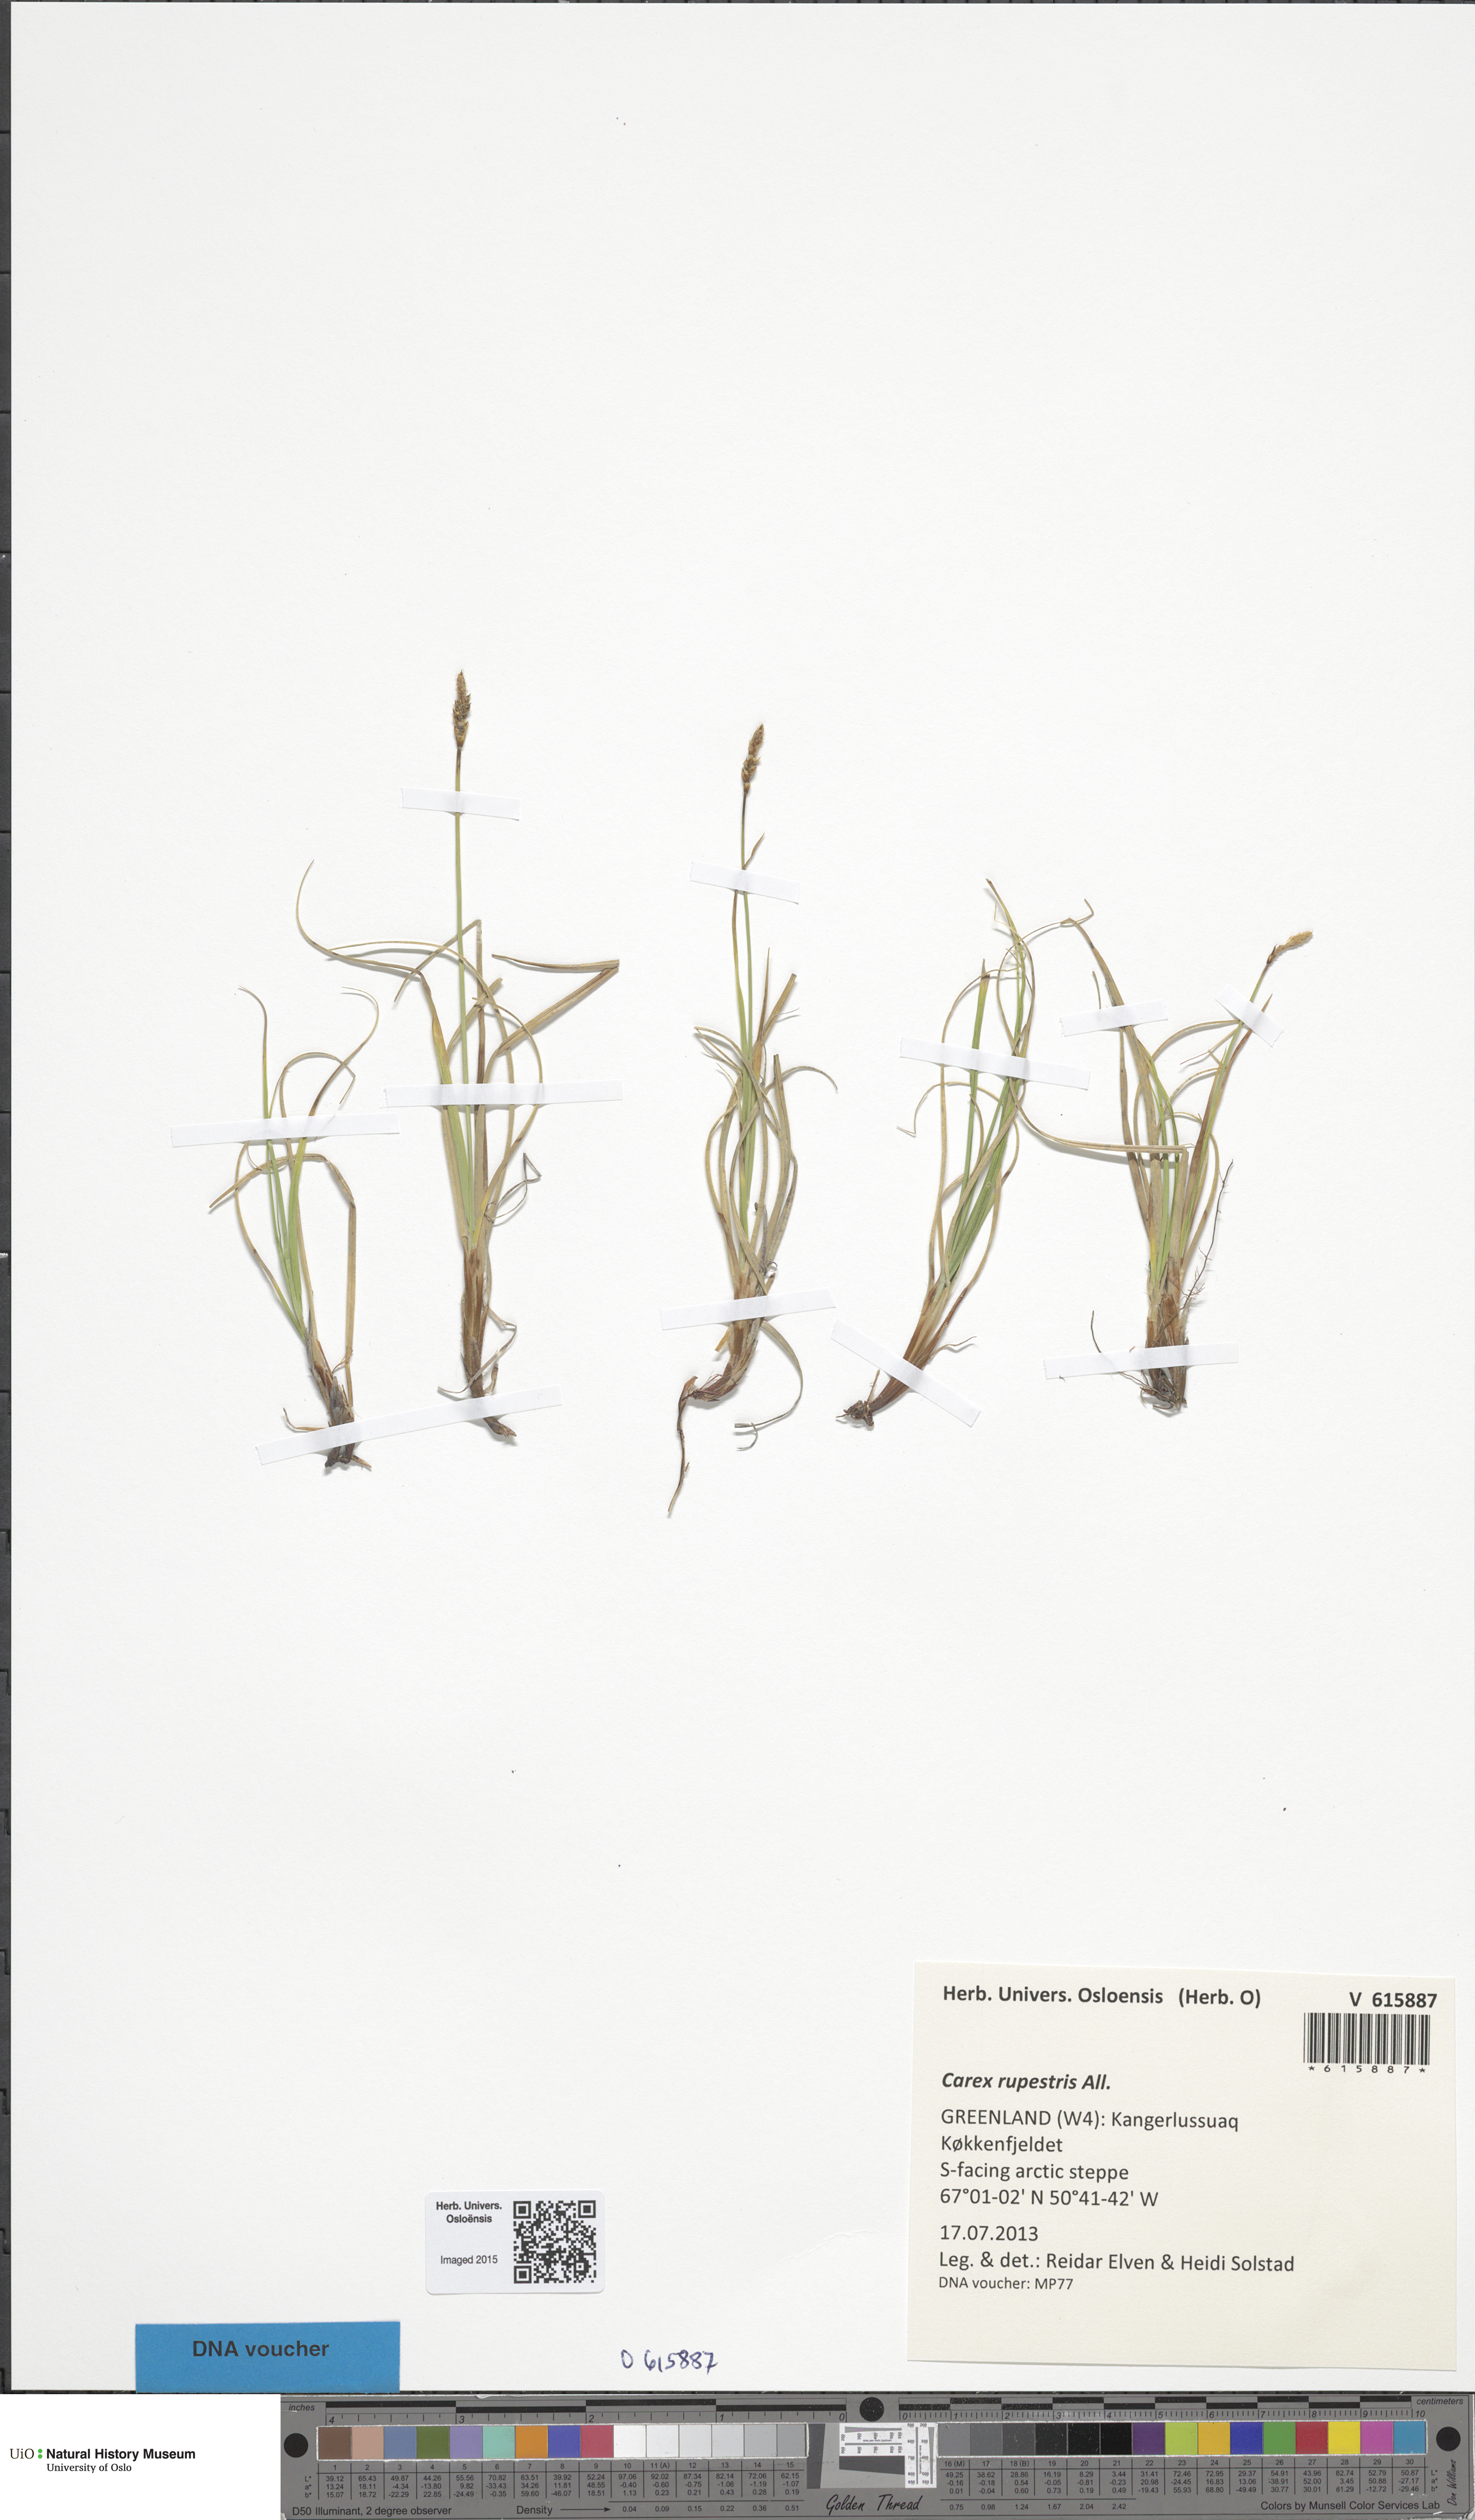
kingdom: Plantae
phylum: Tracheophyta
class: Liliopsida
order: Poales
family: Cyperaceae
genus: Carex
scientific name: Carex rupestris
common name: Rock sedge
